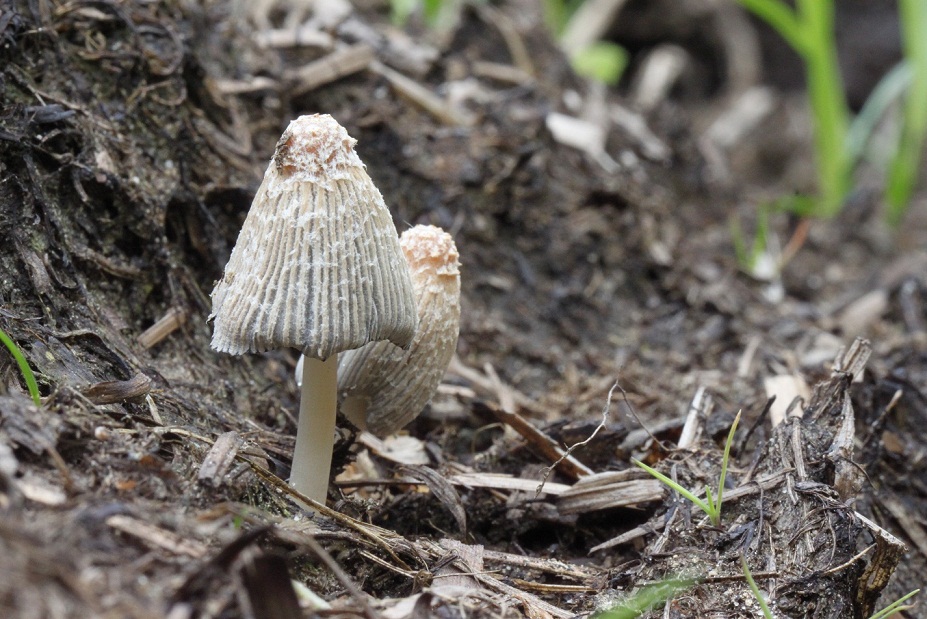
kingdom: Fungi
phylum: Basidiomycota
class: Agaricomycetes
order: Agaricales
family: Psathyrellaceae
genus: Coprinellus
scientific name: Coprinellus flocculosus
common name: fnugget blækhat
